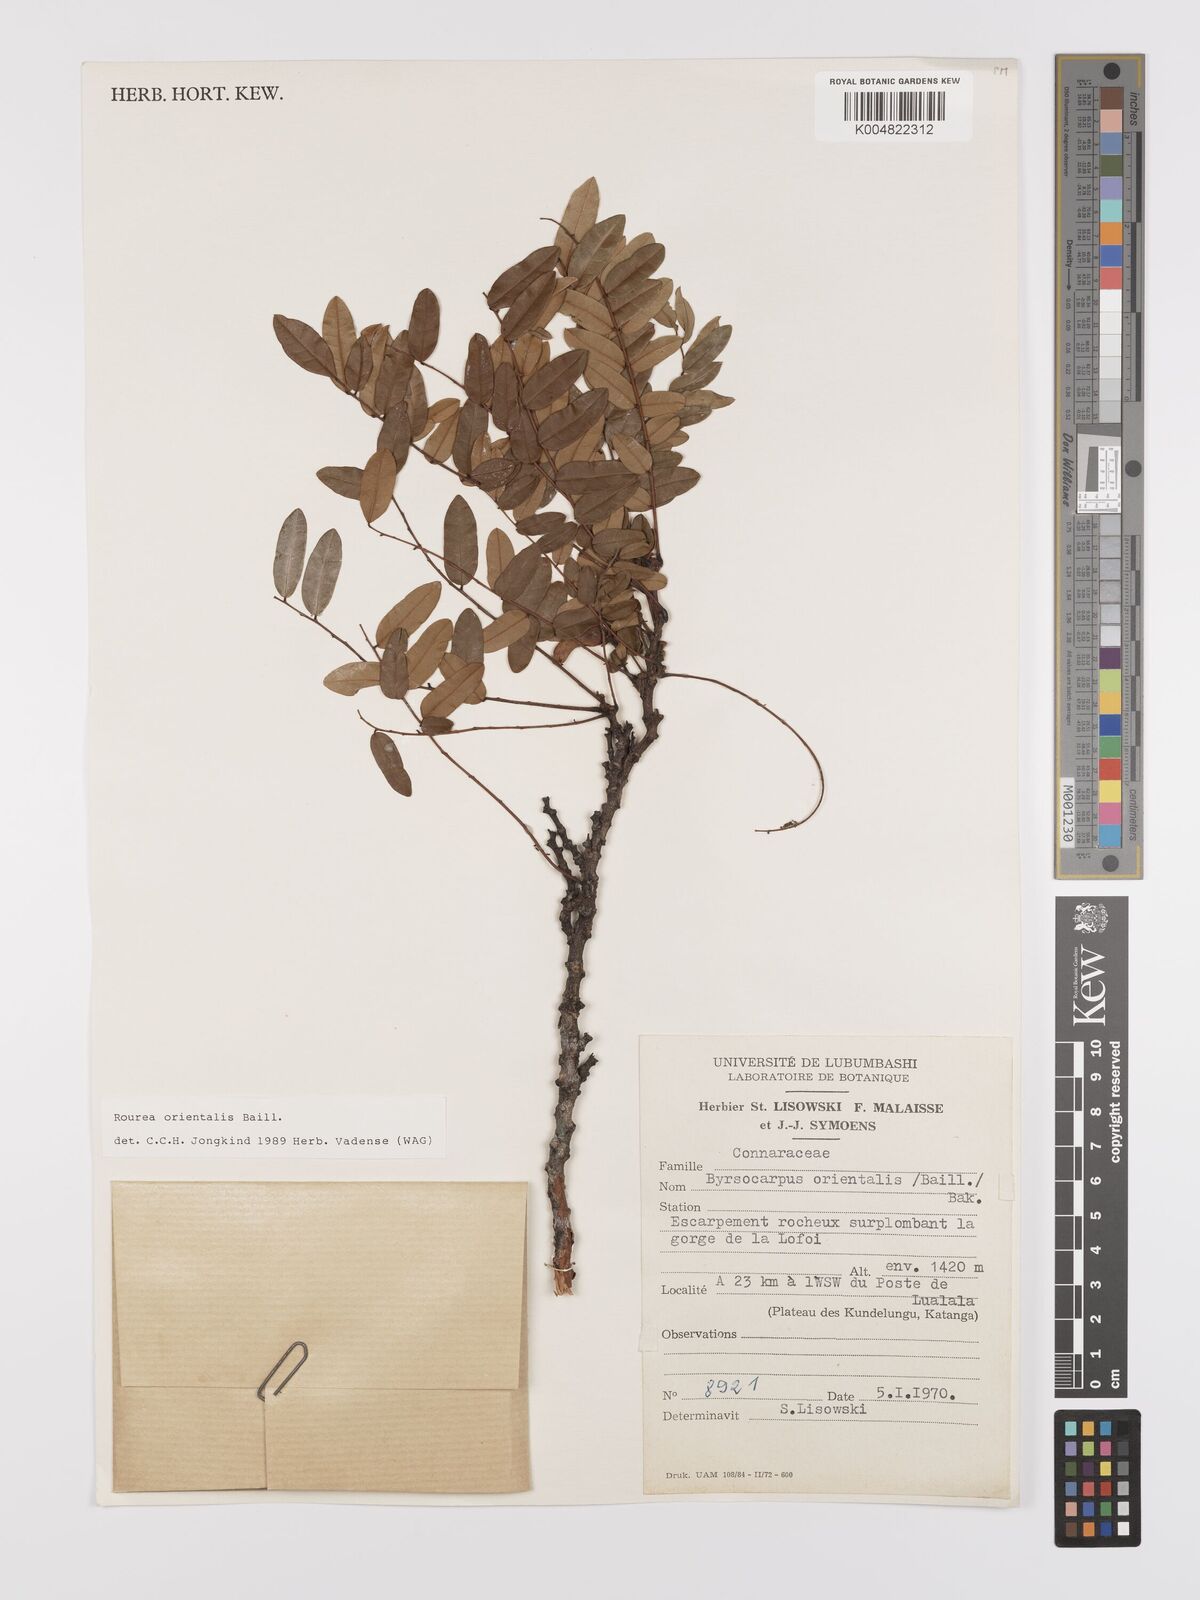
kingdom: Plantae
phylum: Tracheophyta
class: Magnoliopsida
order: Oxalidales
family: Connaraceae
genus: Rourea
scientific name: Rourea orientalis
